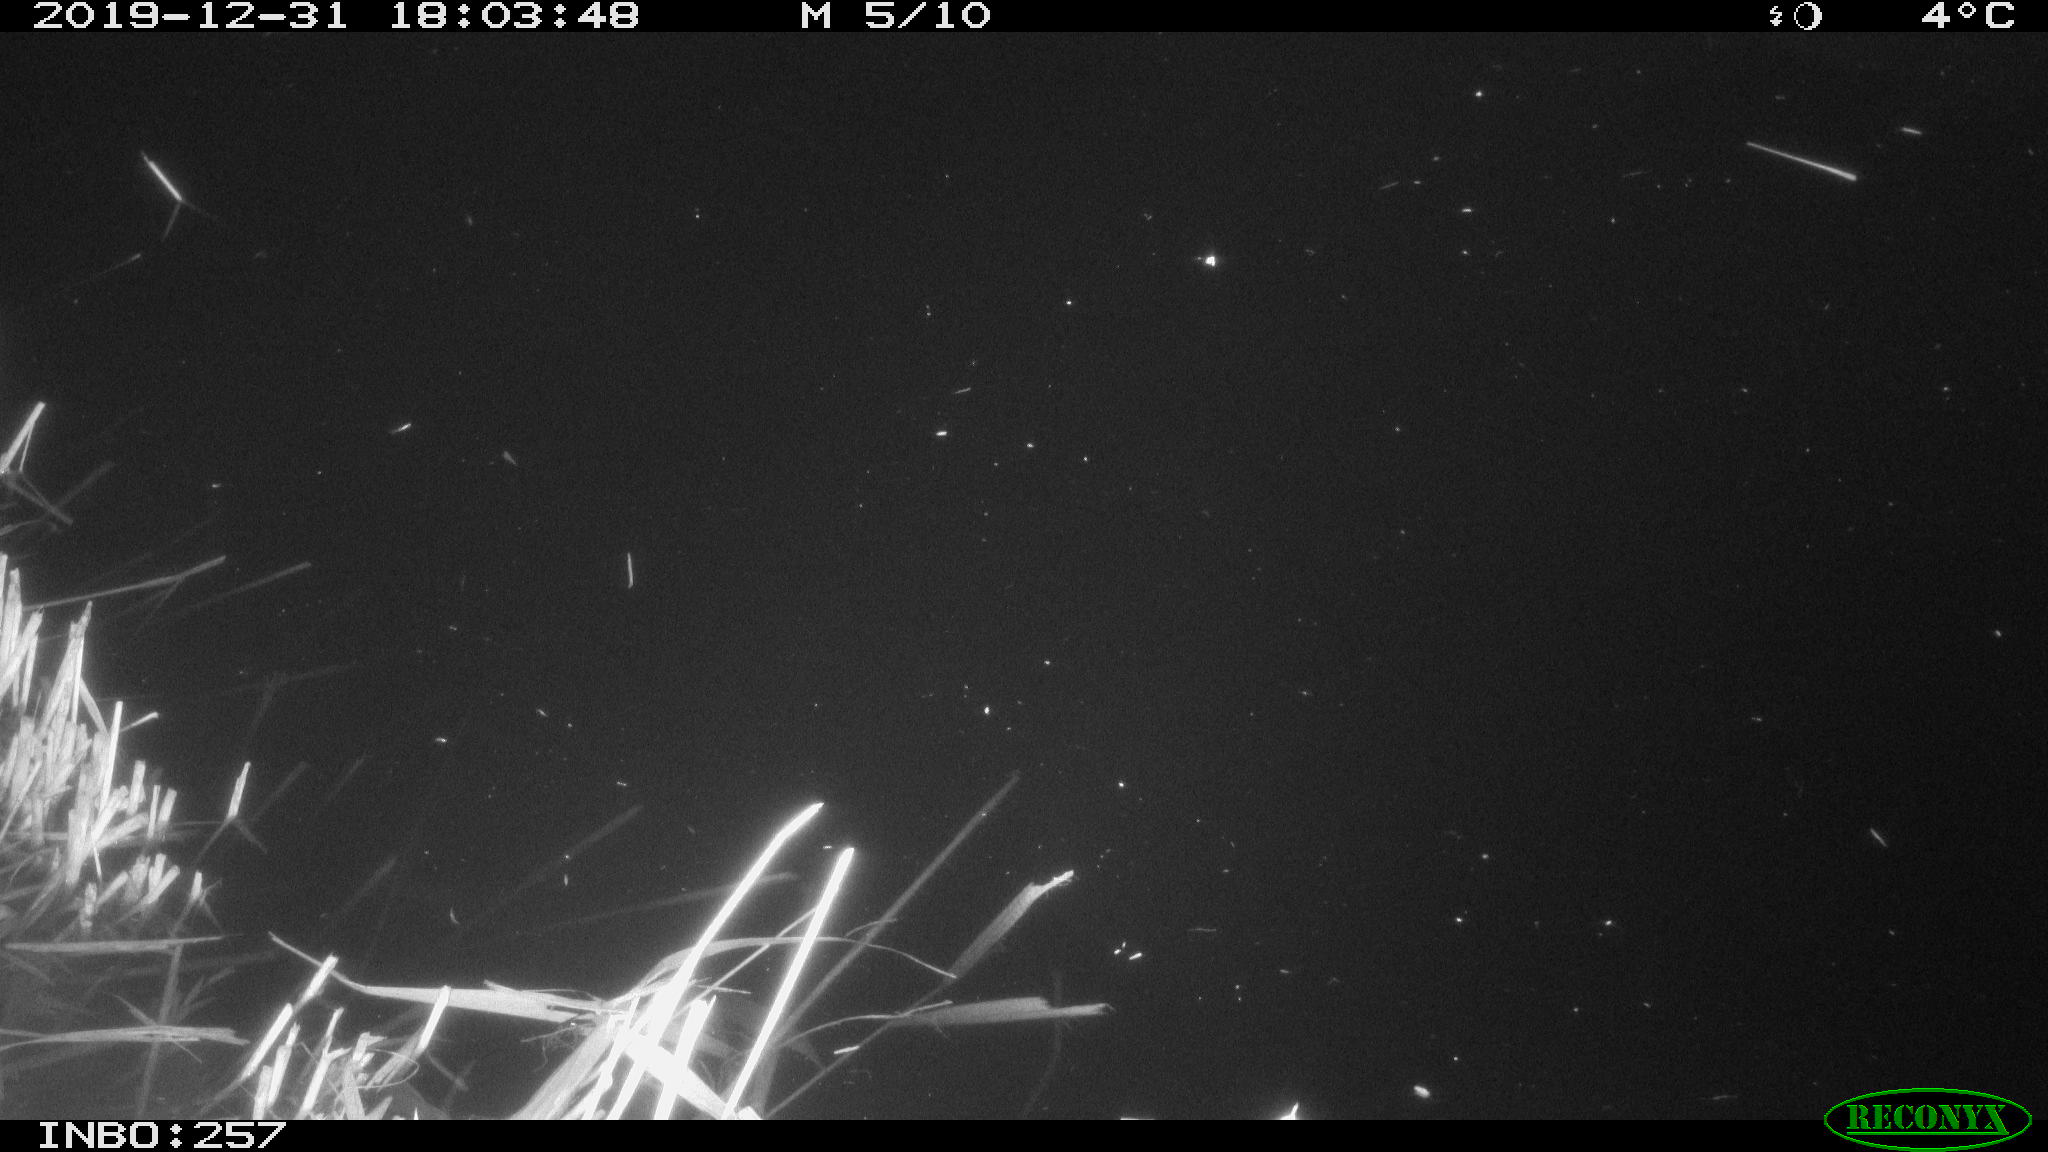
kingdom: Animalia
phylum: Chordata
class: Aves
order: Anseriformes
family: Anatidae
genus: Anas
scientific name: Anas platyrhynchos
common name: Mallard
